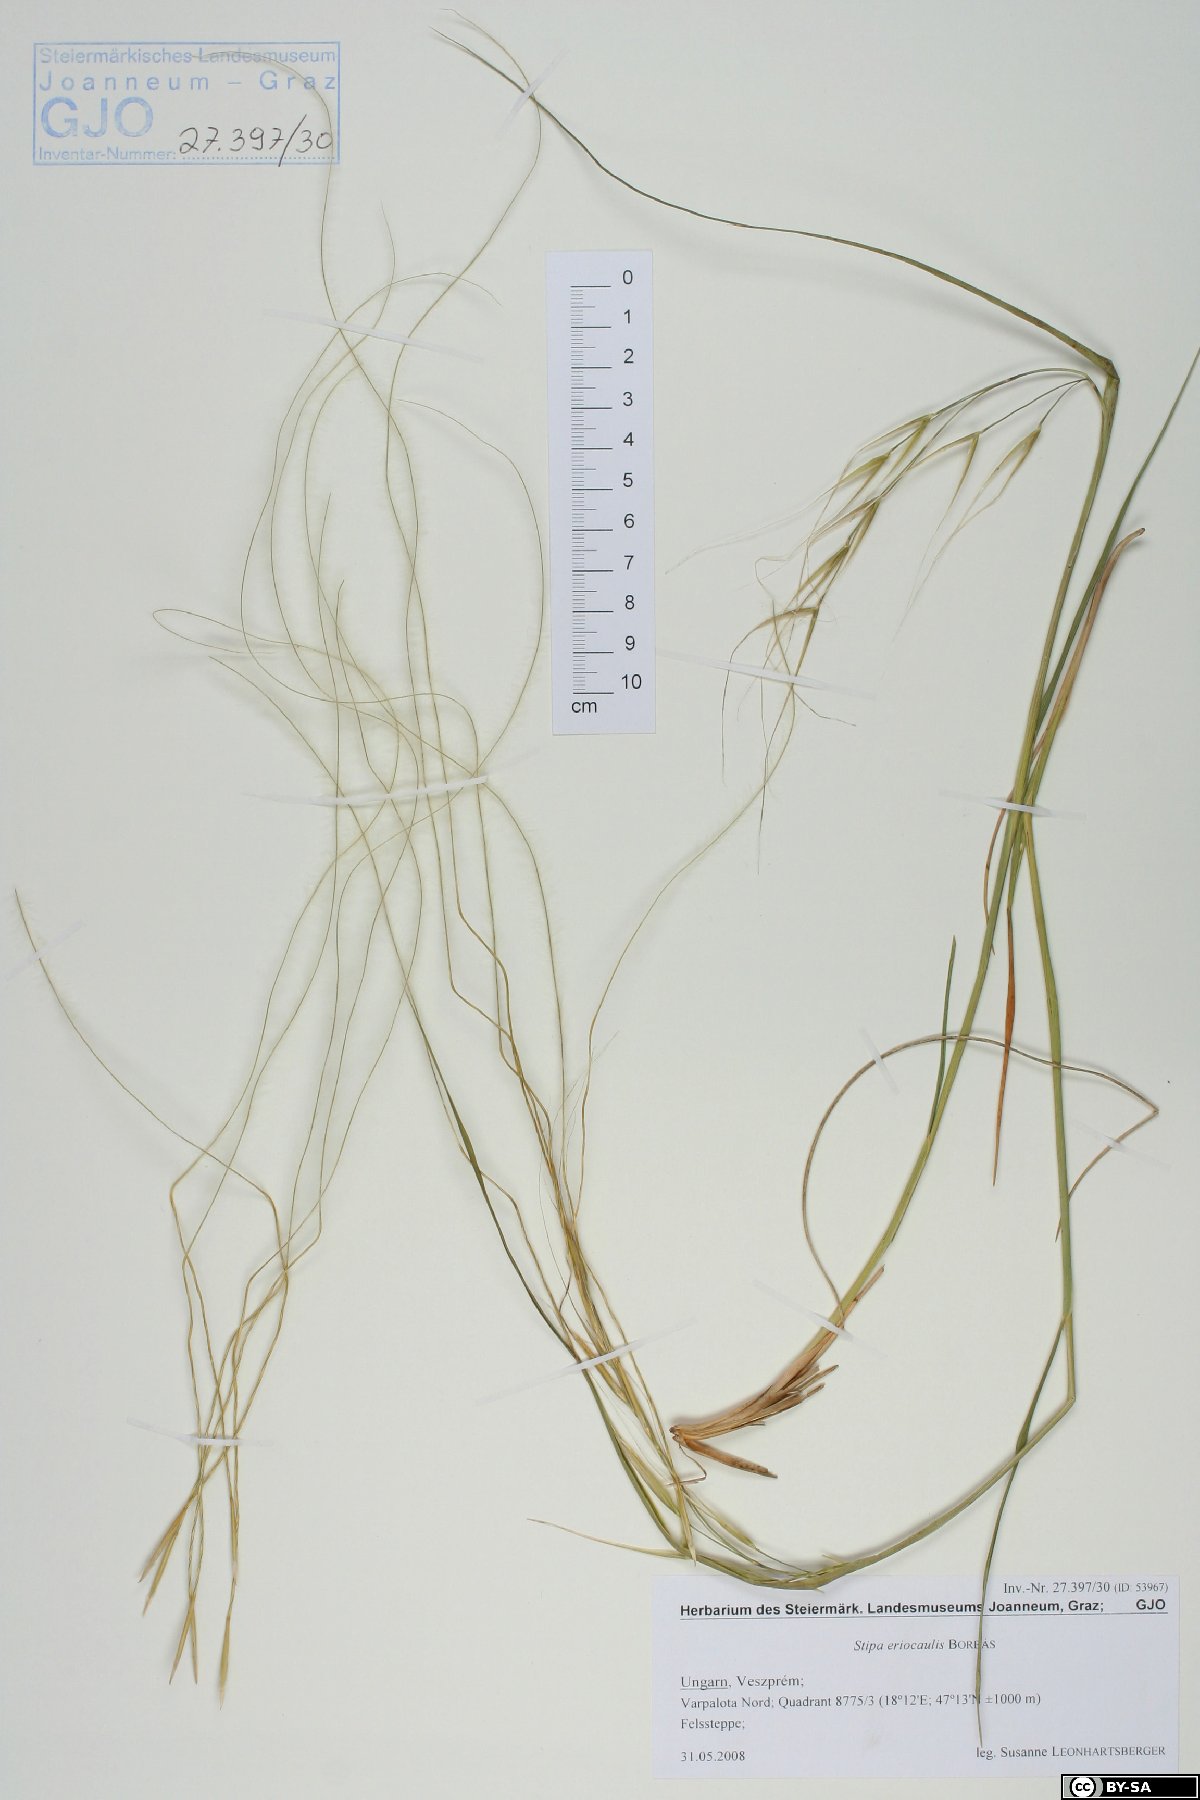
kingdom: Plantae
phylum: Tracheophyta
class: Liliopsida
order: Poales
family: Poaceae
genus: Stipa
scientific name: Stipa pennata
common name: European feather grass
